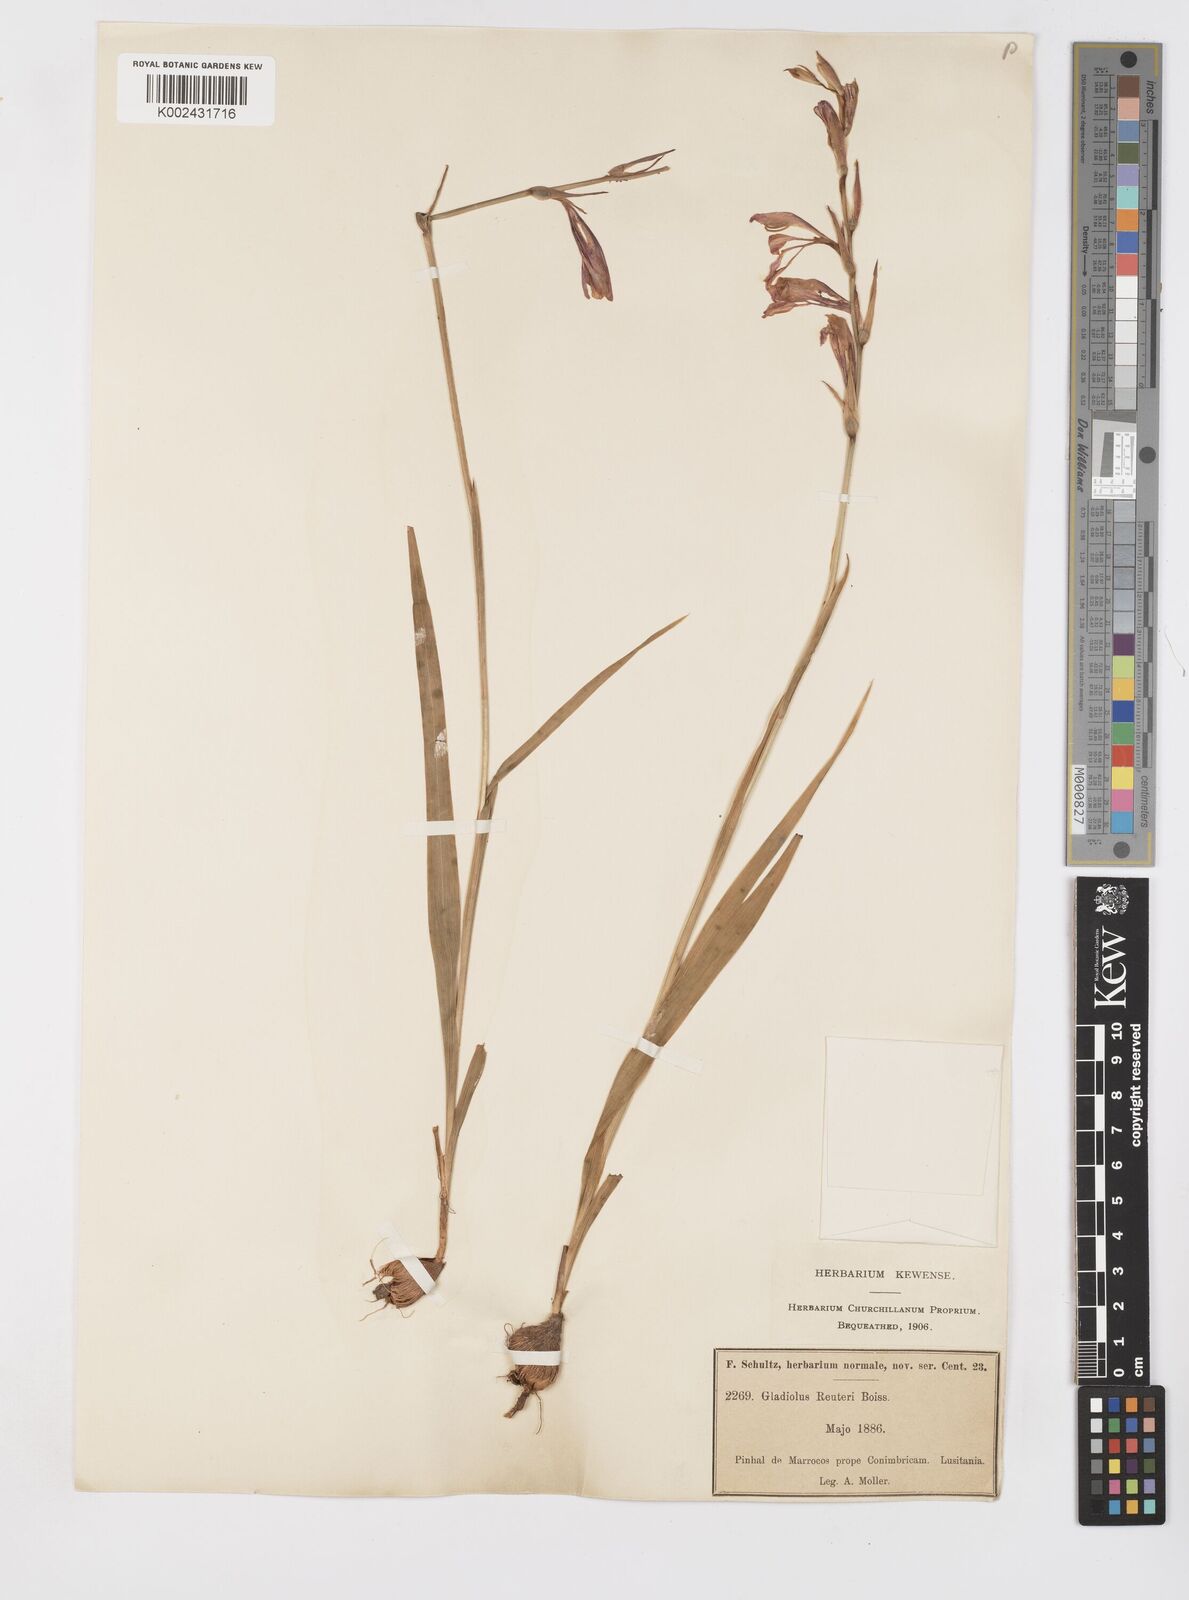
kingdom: Plantae
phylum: Tracheophyta
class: Liliopsida
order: Asparagales
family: Iridaceae
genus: Gladiolus
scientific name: Gladiolus illyricus
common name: Wild gladiolus
